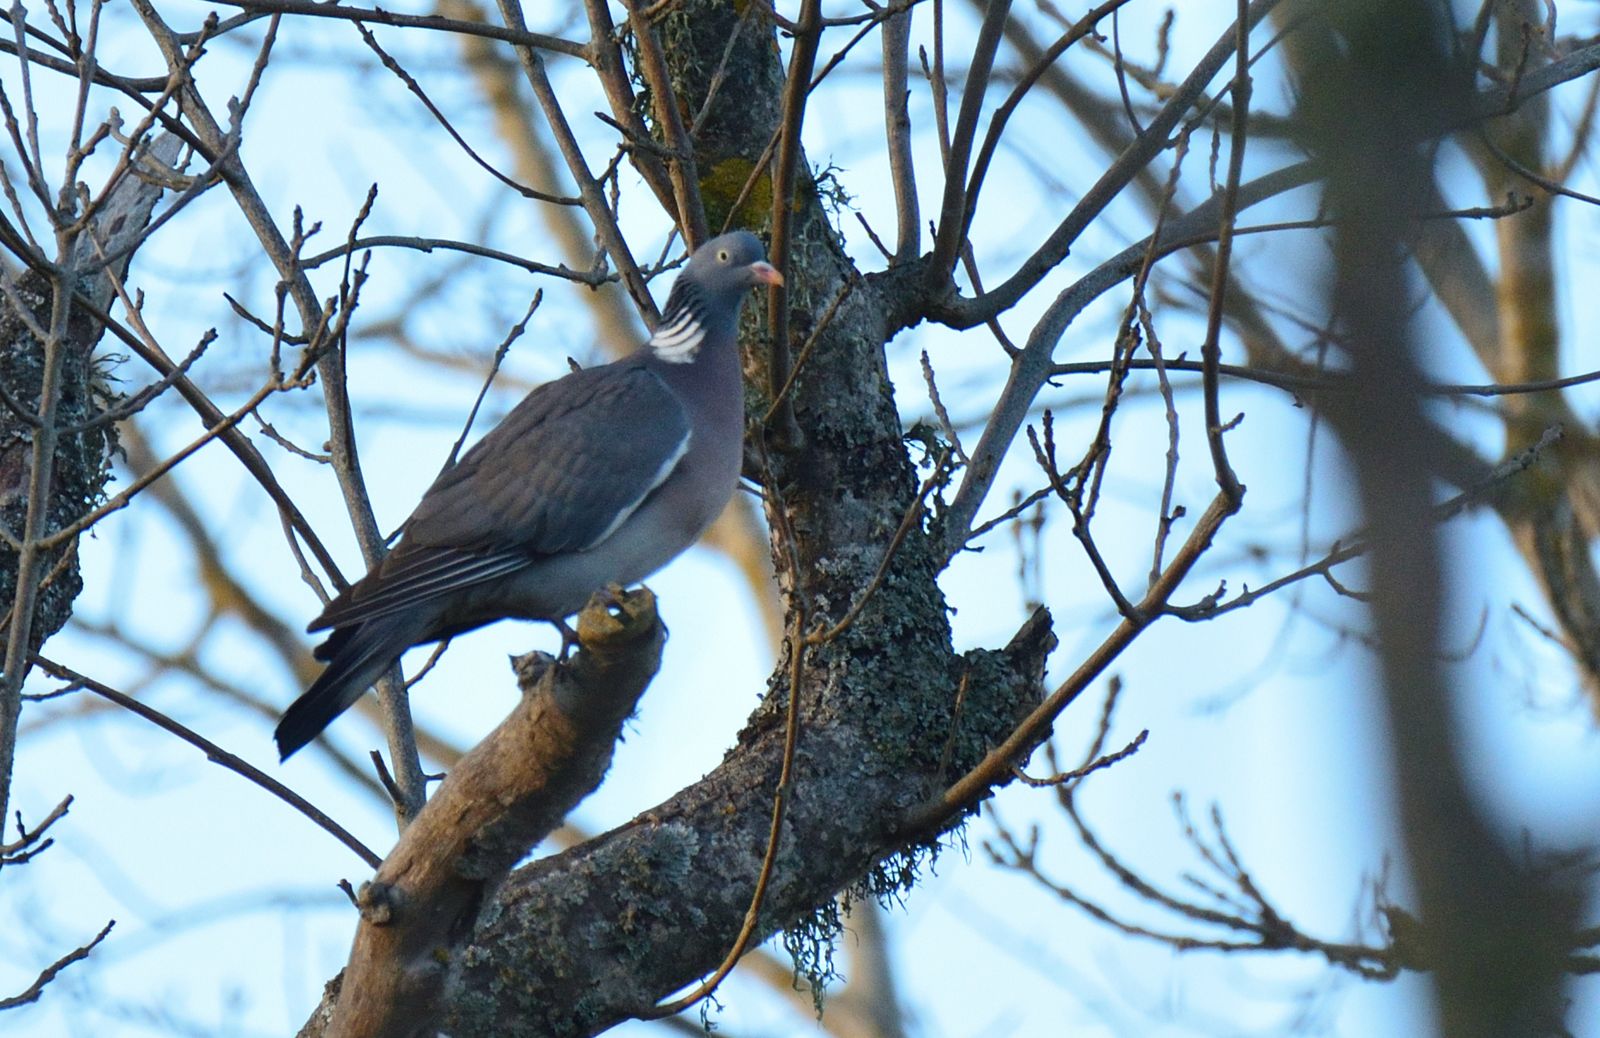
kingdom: Animalia
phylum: Chordata
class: Aves
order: Columbiformes
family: Columbidae
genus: Columba
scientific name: Columba palumbus
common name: Common wood pigeon
